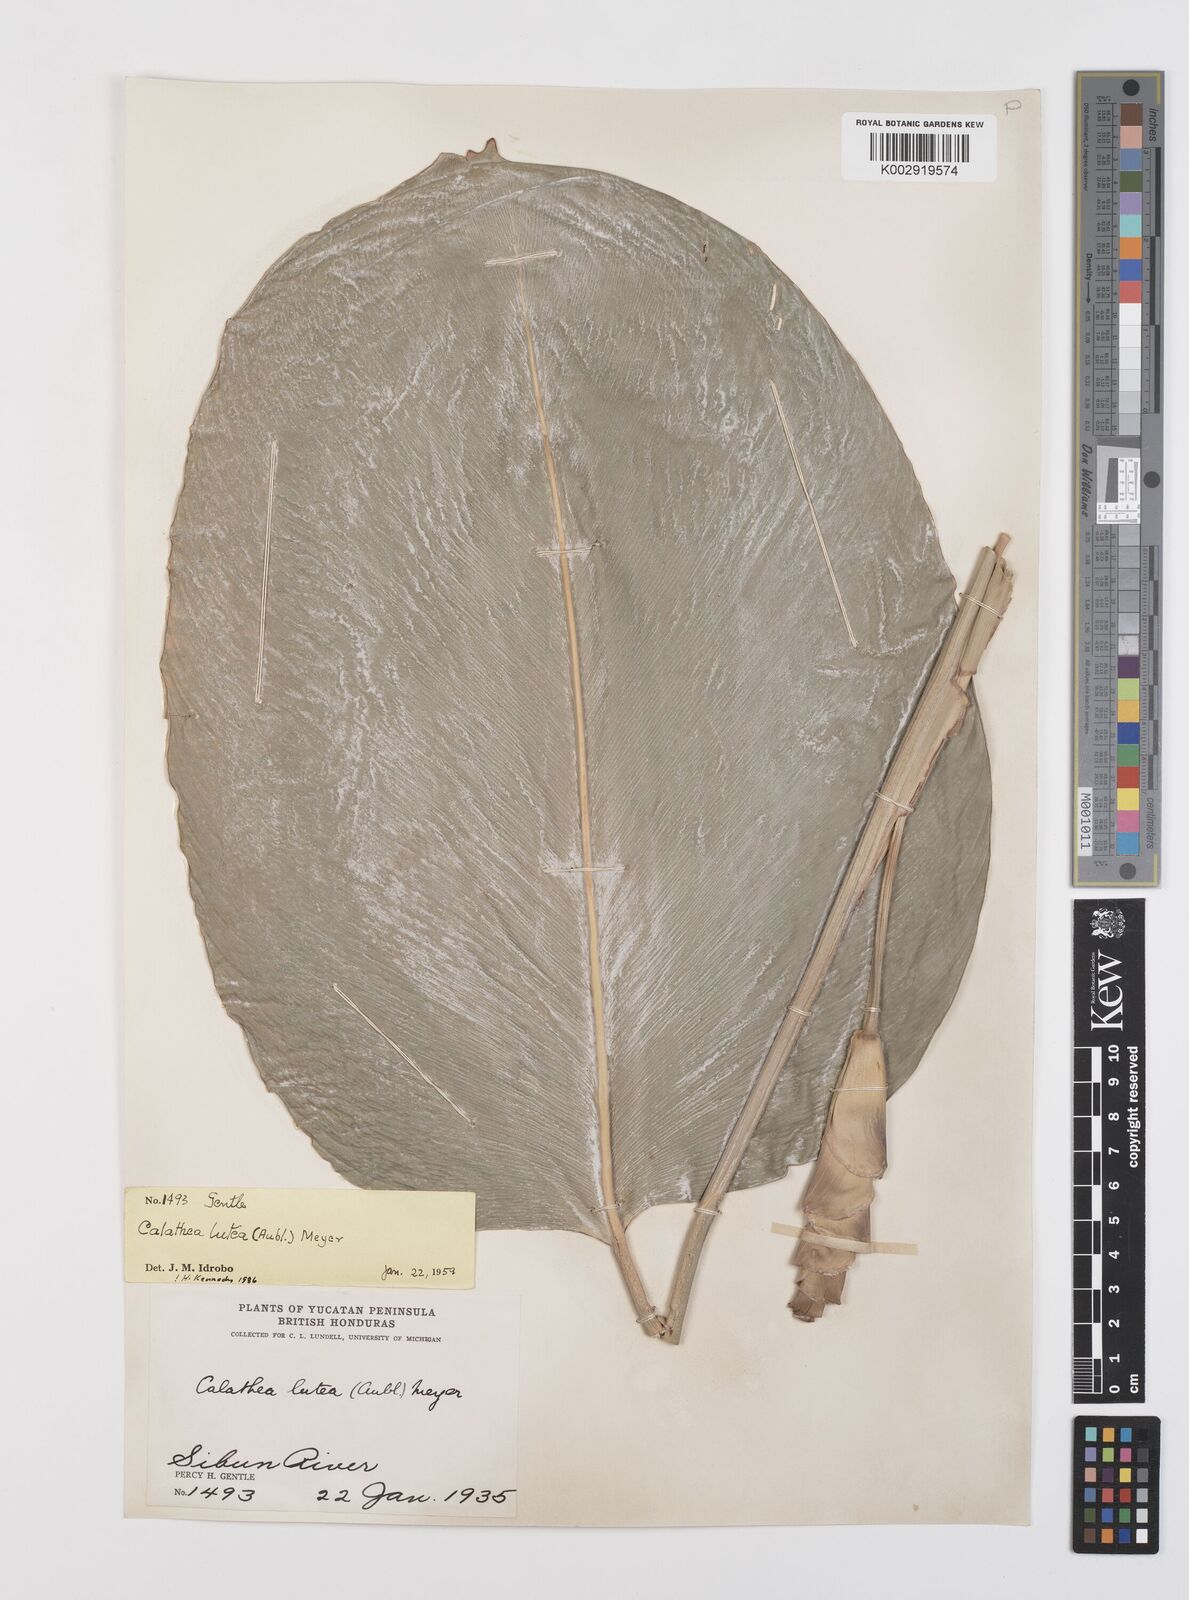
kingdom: Plantae
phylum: Tracheophyta
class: Liliopsida
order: Zingiberales
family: Marantaceae
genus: Calathea
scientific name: Calathea lutea
